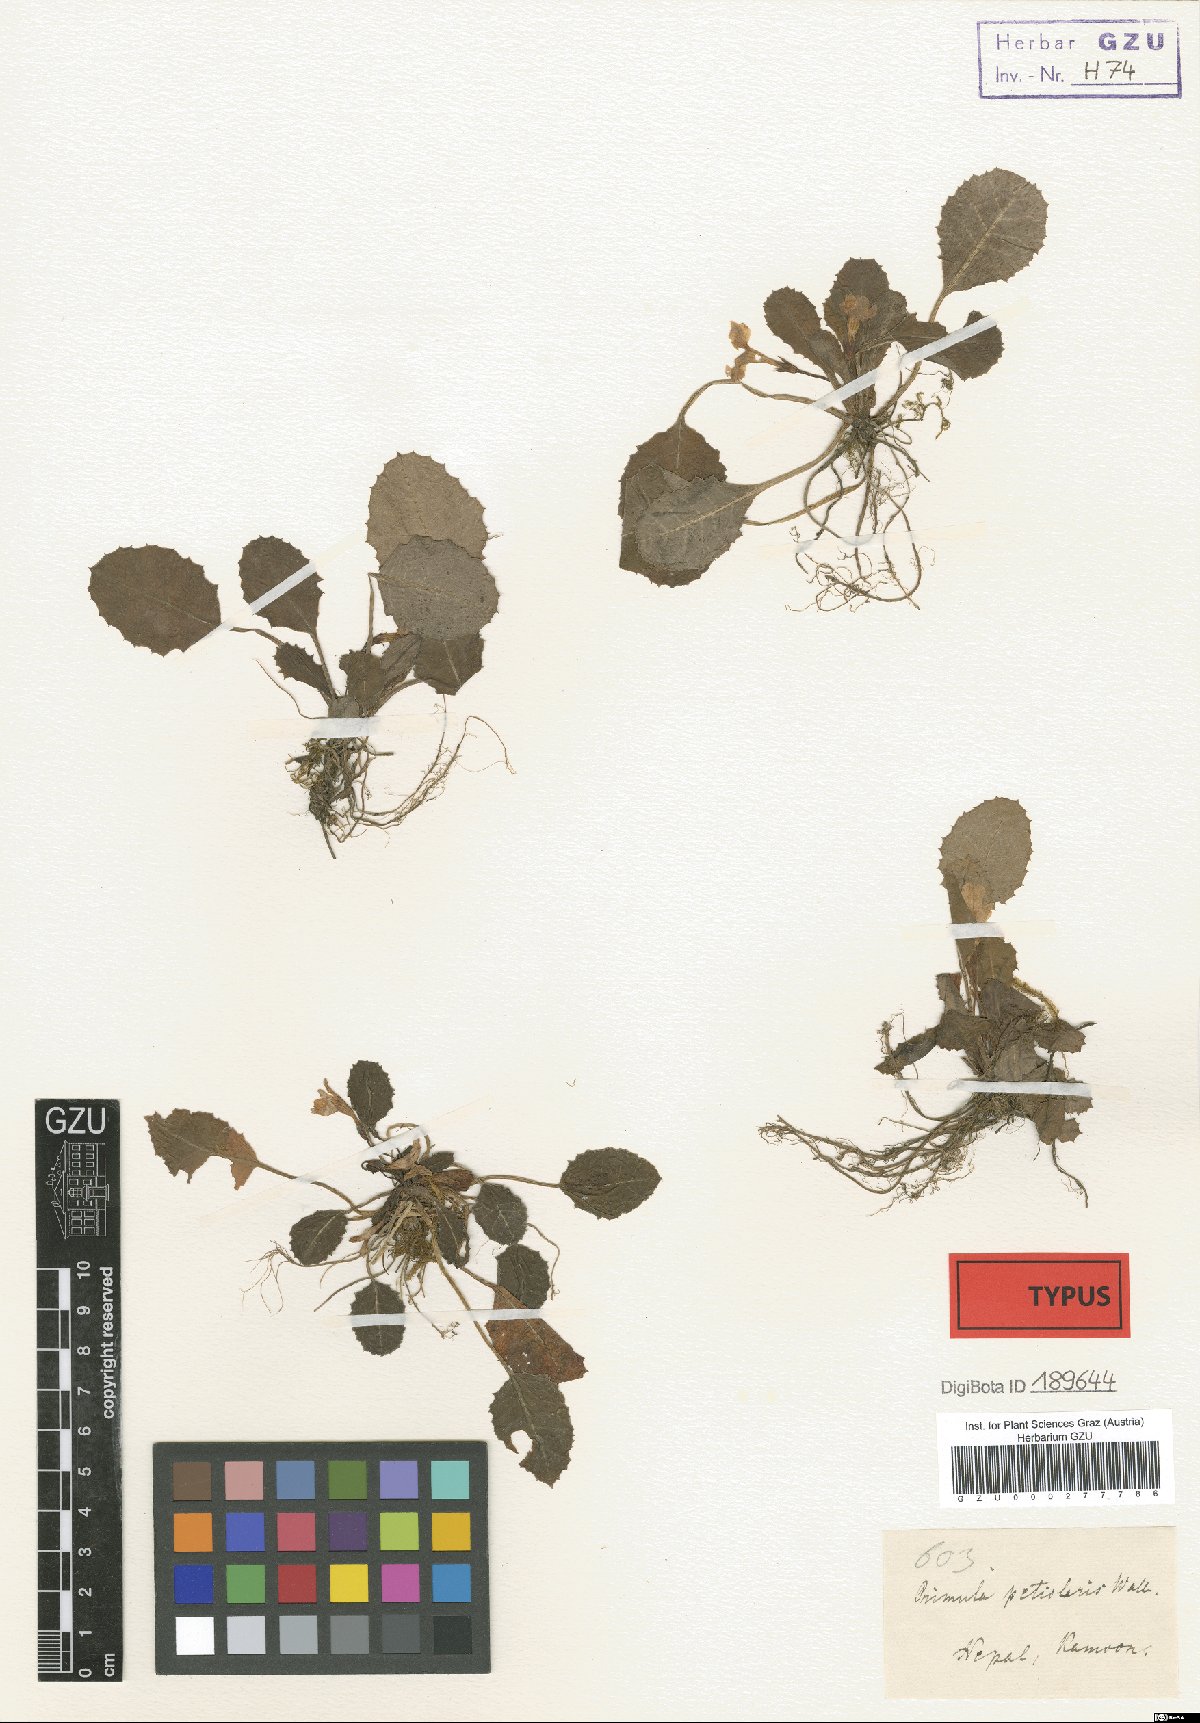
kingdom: Plantae
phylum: Tracheophyta
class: Magnoliopsida
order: Ericales
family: Primulaceae
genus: Primula
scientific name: Primula petiolaris
